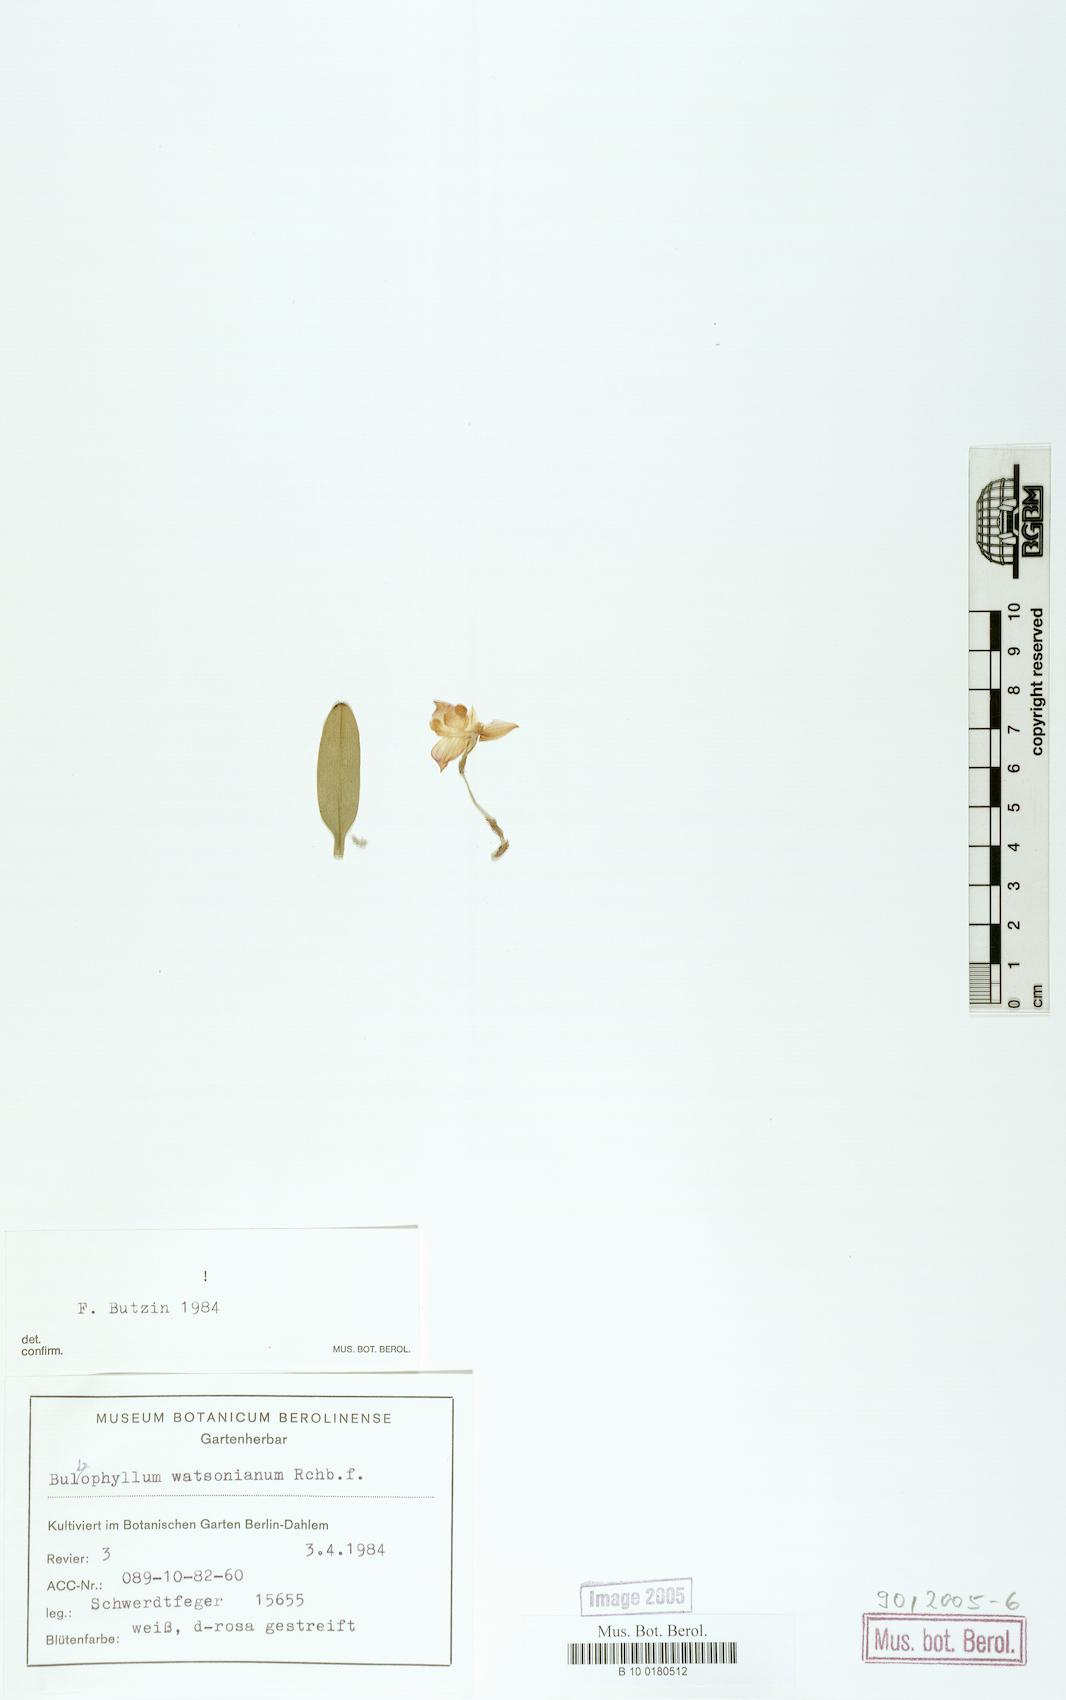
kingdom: Plantae
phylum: Tracheophyta
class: Liliopsida
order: Asparagales
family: Orchidaceae
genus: Bulbophyllum
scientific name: Bulbophyllum ambrosia
